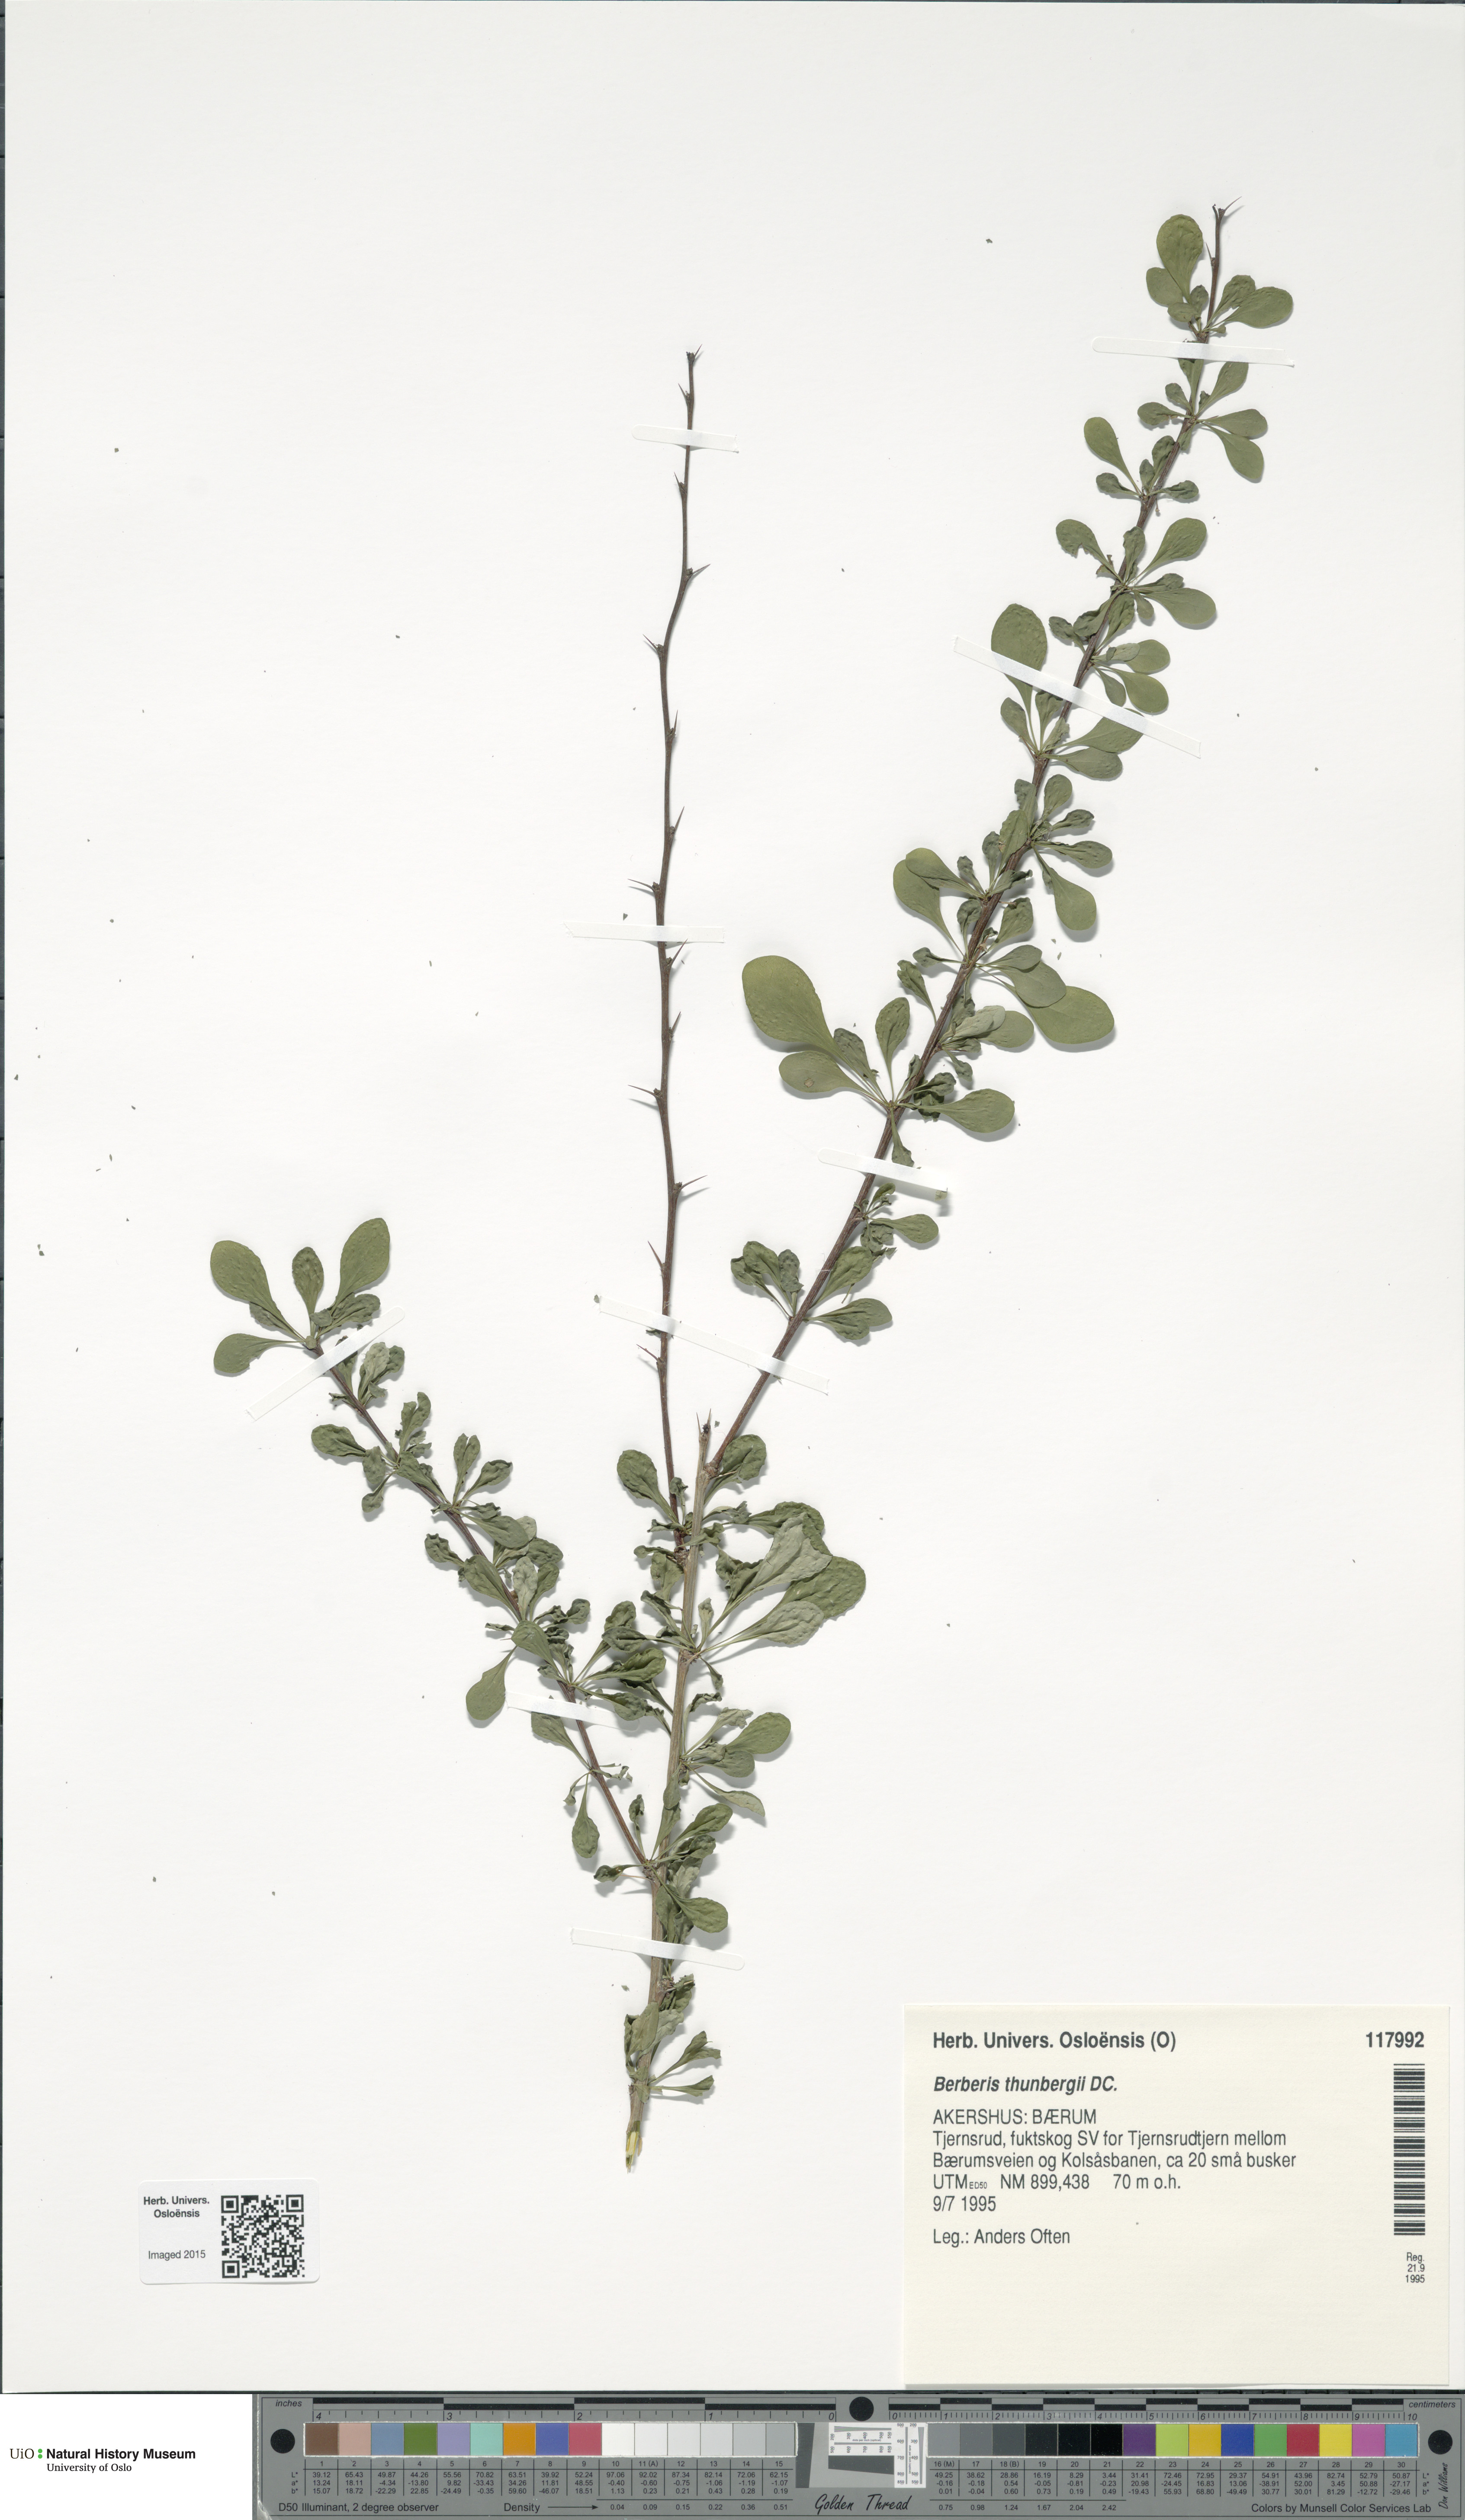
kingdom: Plantae
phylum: Tracheophyta
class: Magnoliopsida
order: Ranunculales
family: Berberidaceae
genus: Berberis
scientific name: Berberis thunbergii
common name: Japanese barberry
